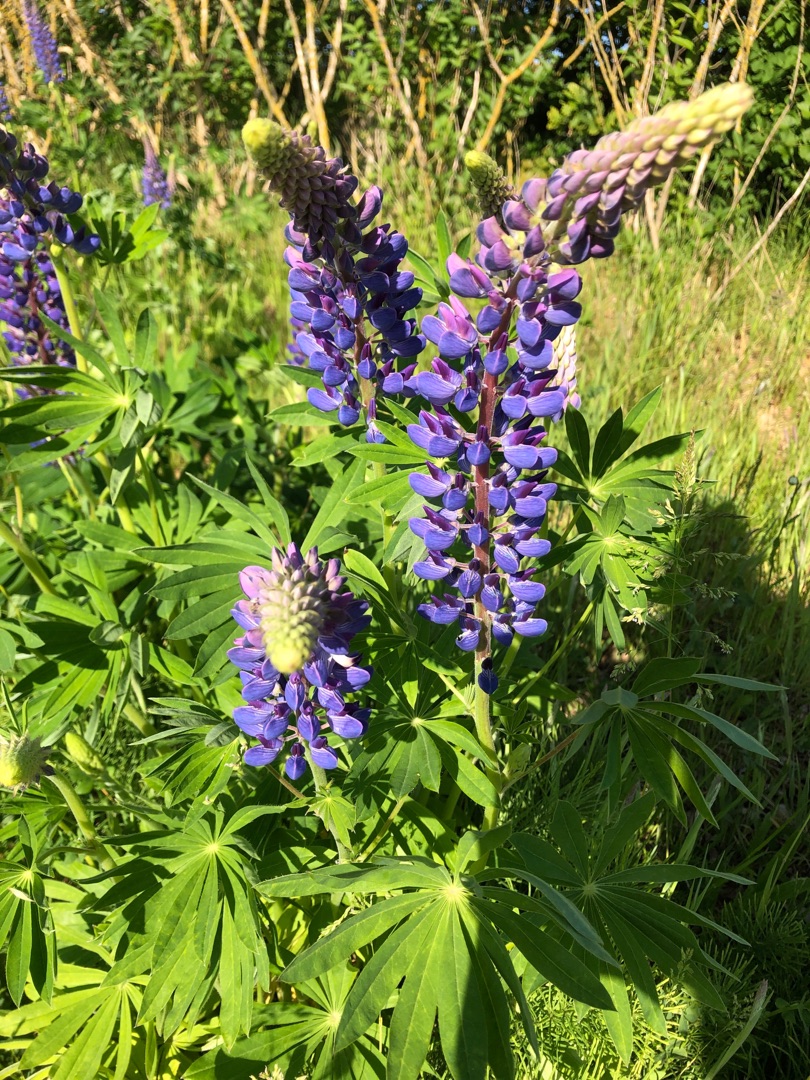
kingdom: Plantae
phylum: Tracheophyta
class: Magnoliopsida
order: Fabales
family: Fabaceae
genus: Lupinus
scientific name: Lupinus polyphyllus
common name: Mangebladet lupin
